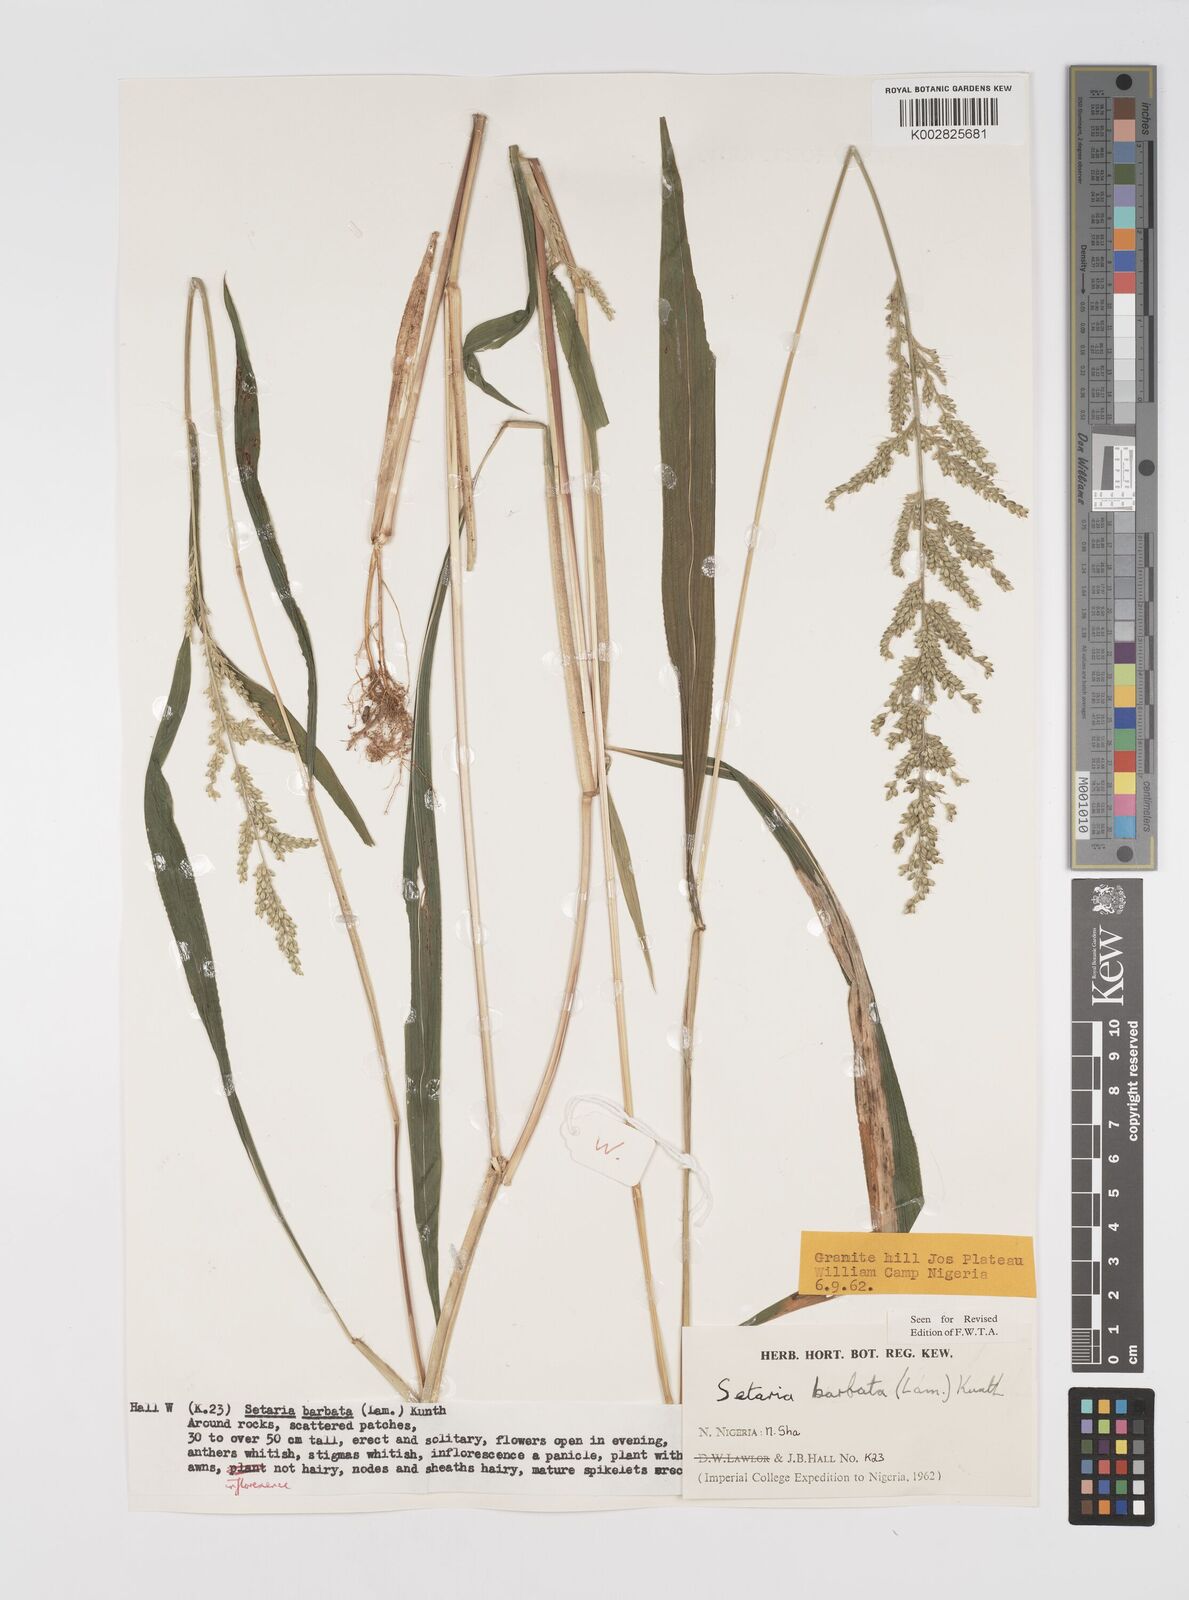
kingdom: Plantae
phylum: Tracheophyta
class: Liliopsida
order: Poales
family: Poaceae
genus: Setaria
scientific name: Setaria barbata
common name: East indian bristlegrass
